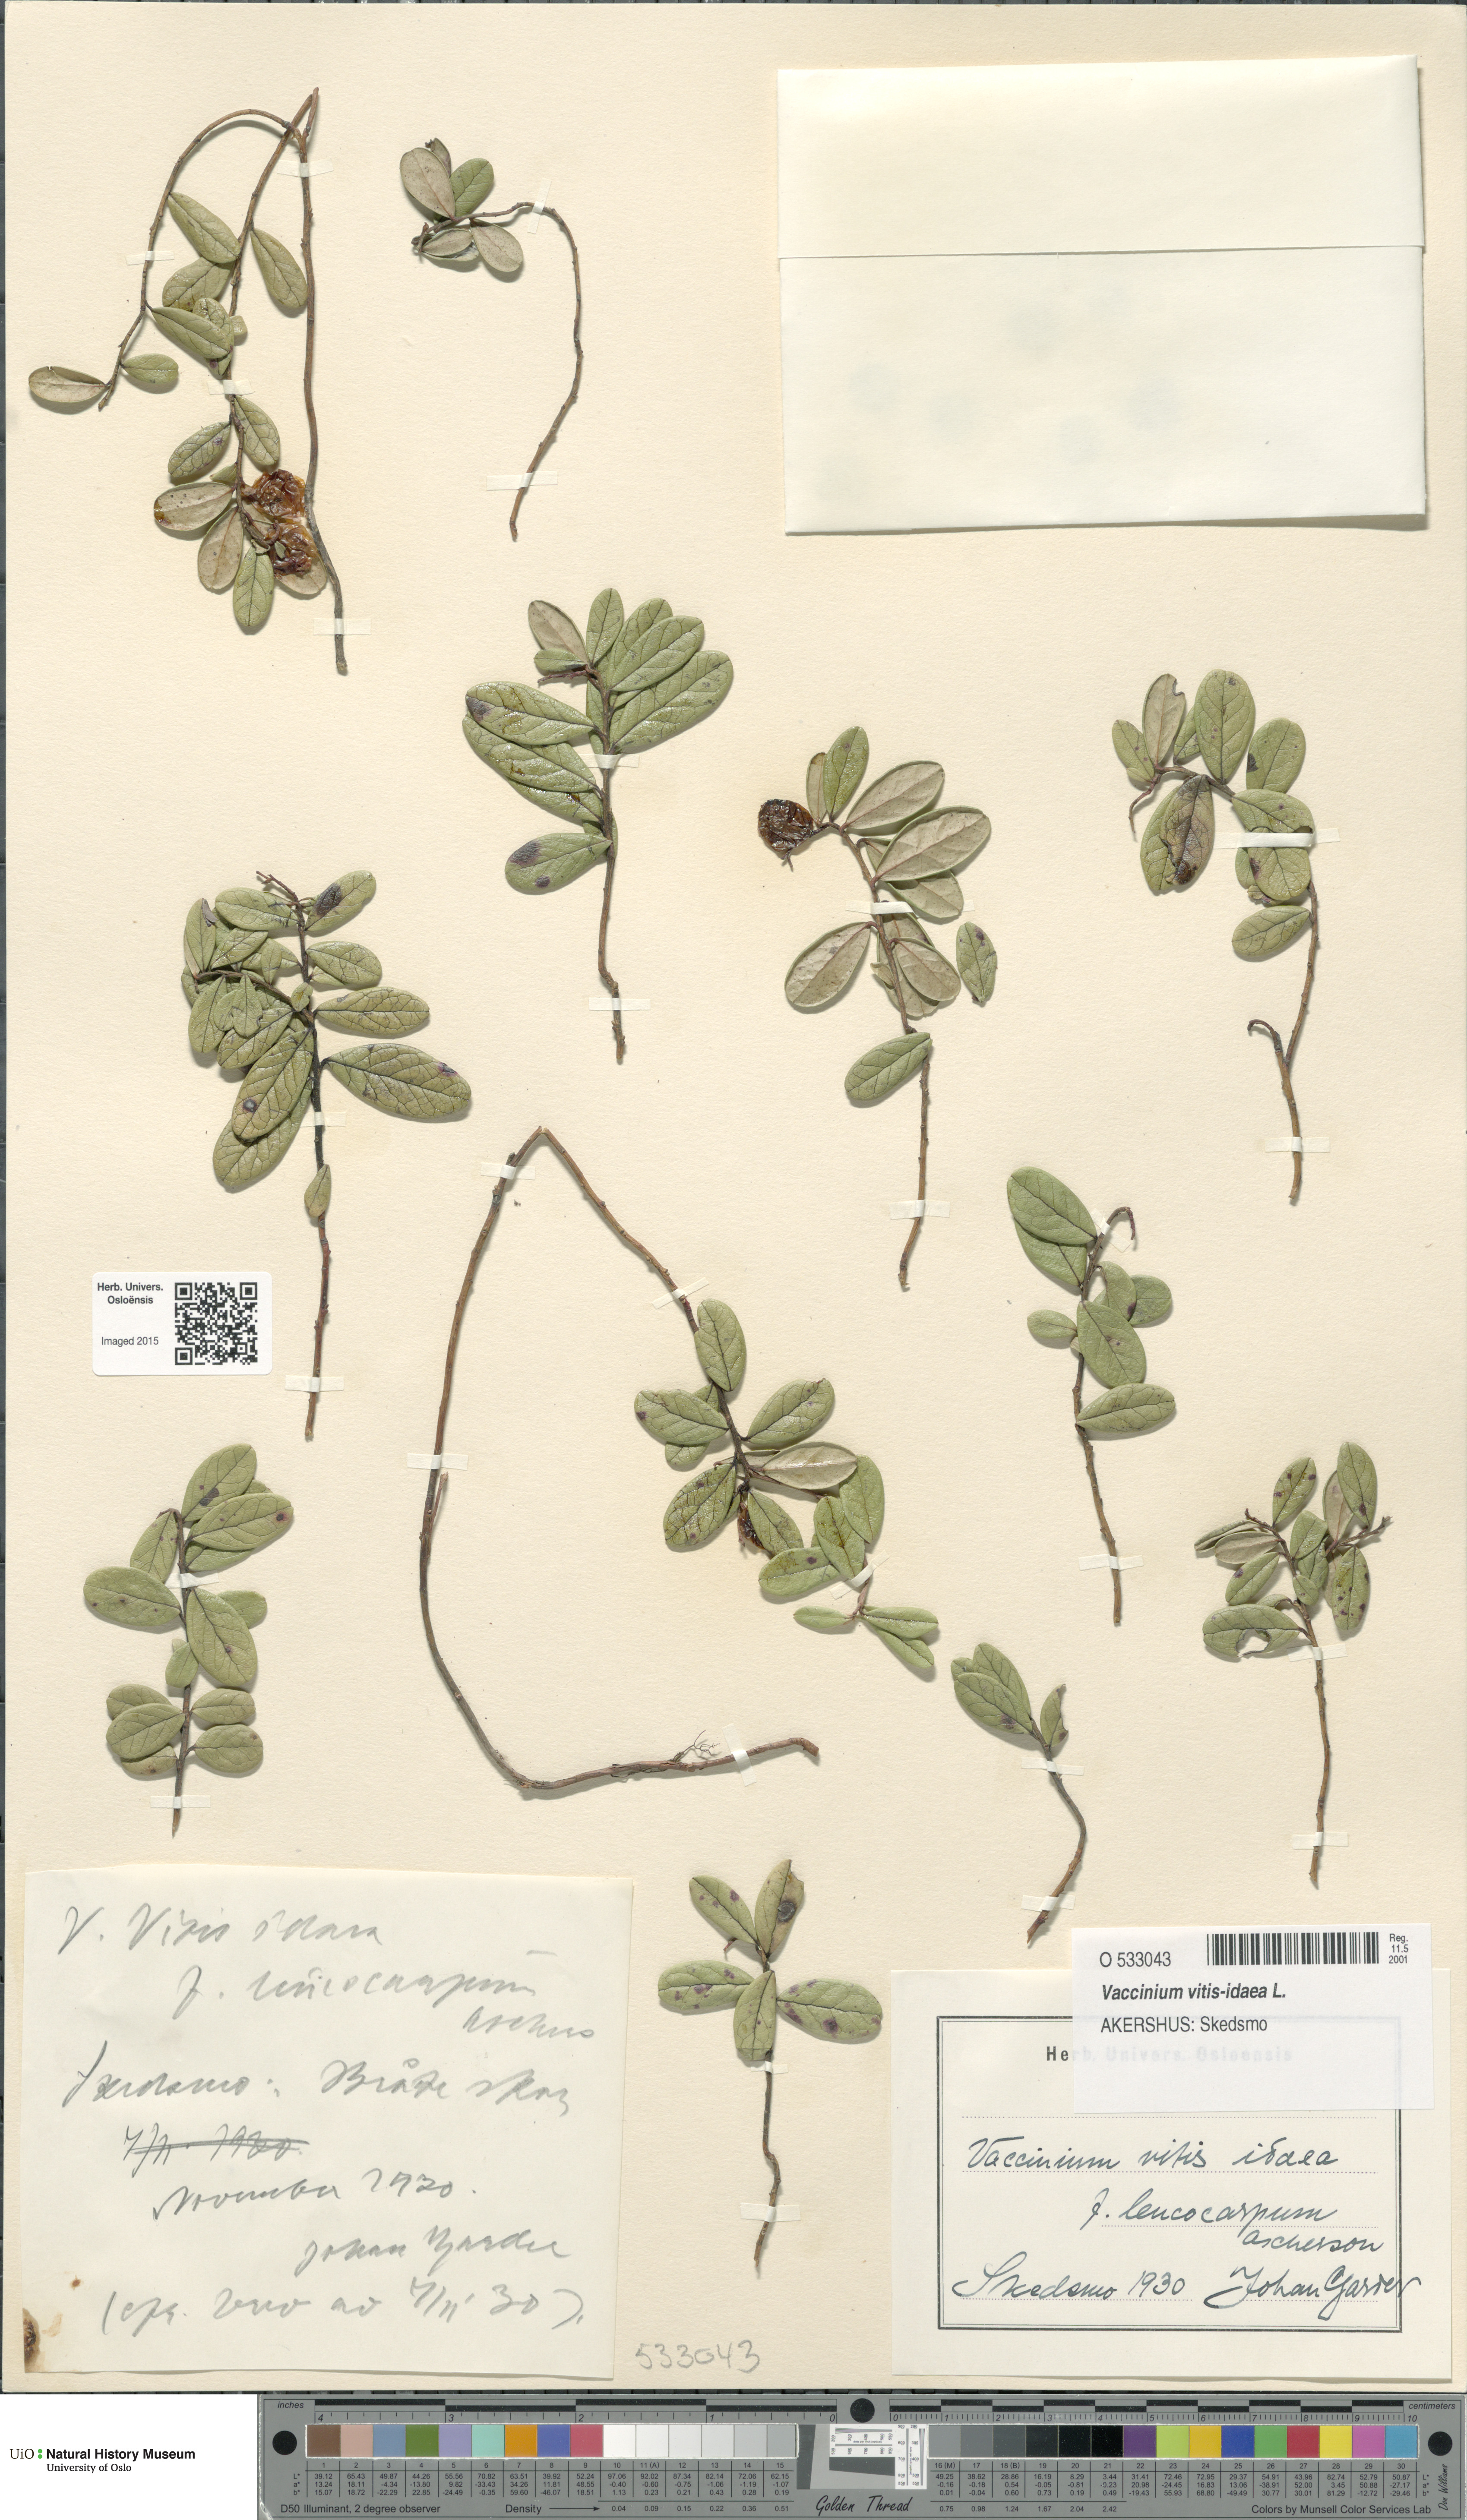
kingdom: Plantae
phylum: Tracheophyta
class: Magnoliopsida
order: Ericales
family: Ericaceae
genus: Vaccinium
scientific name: Vaccinium vitis-idaea
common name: Cowberry
